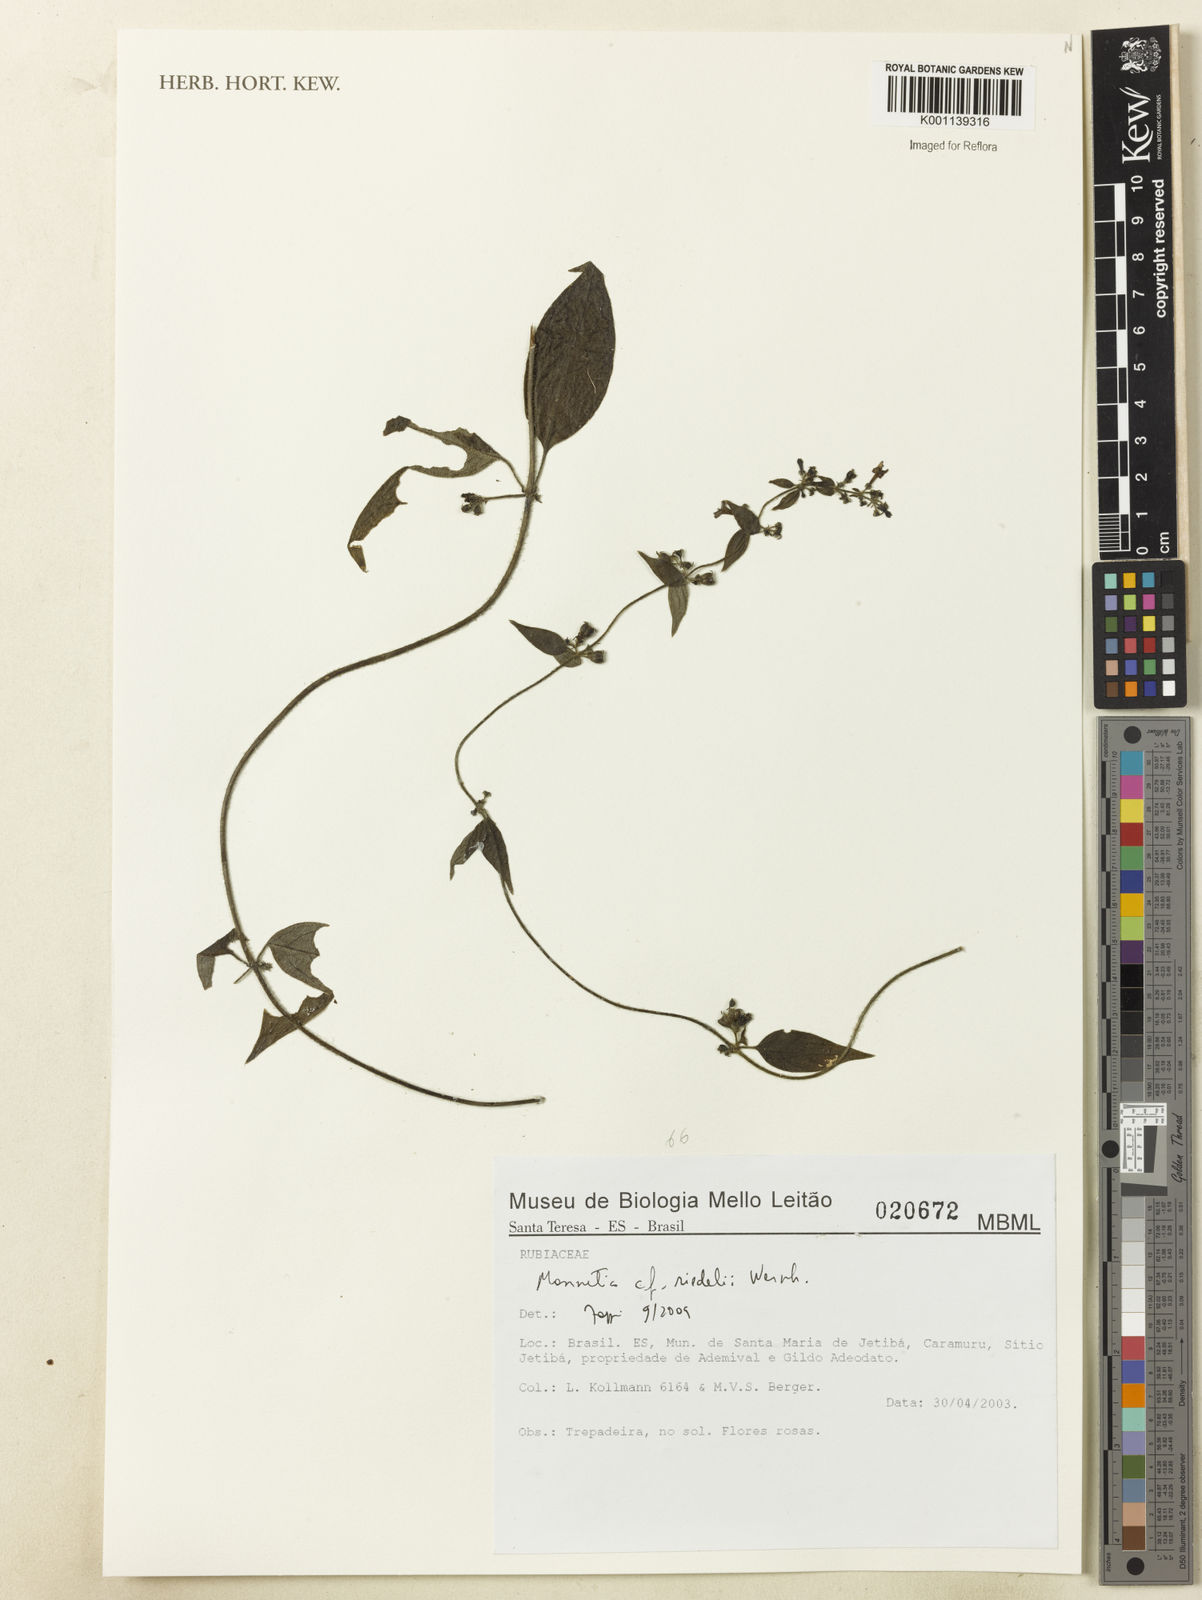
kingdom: Plantae
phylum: Tracheophyta
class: Magnoliopsida
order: Gentianales
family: Rubiaceae
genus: Manettia
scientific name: Manettia riedelii
